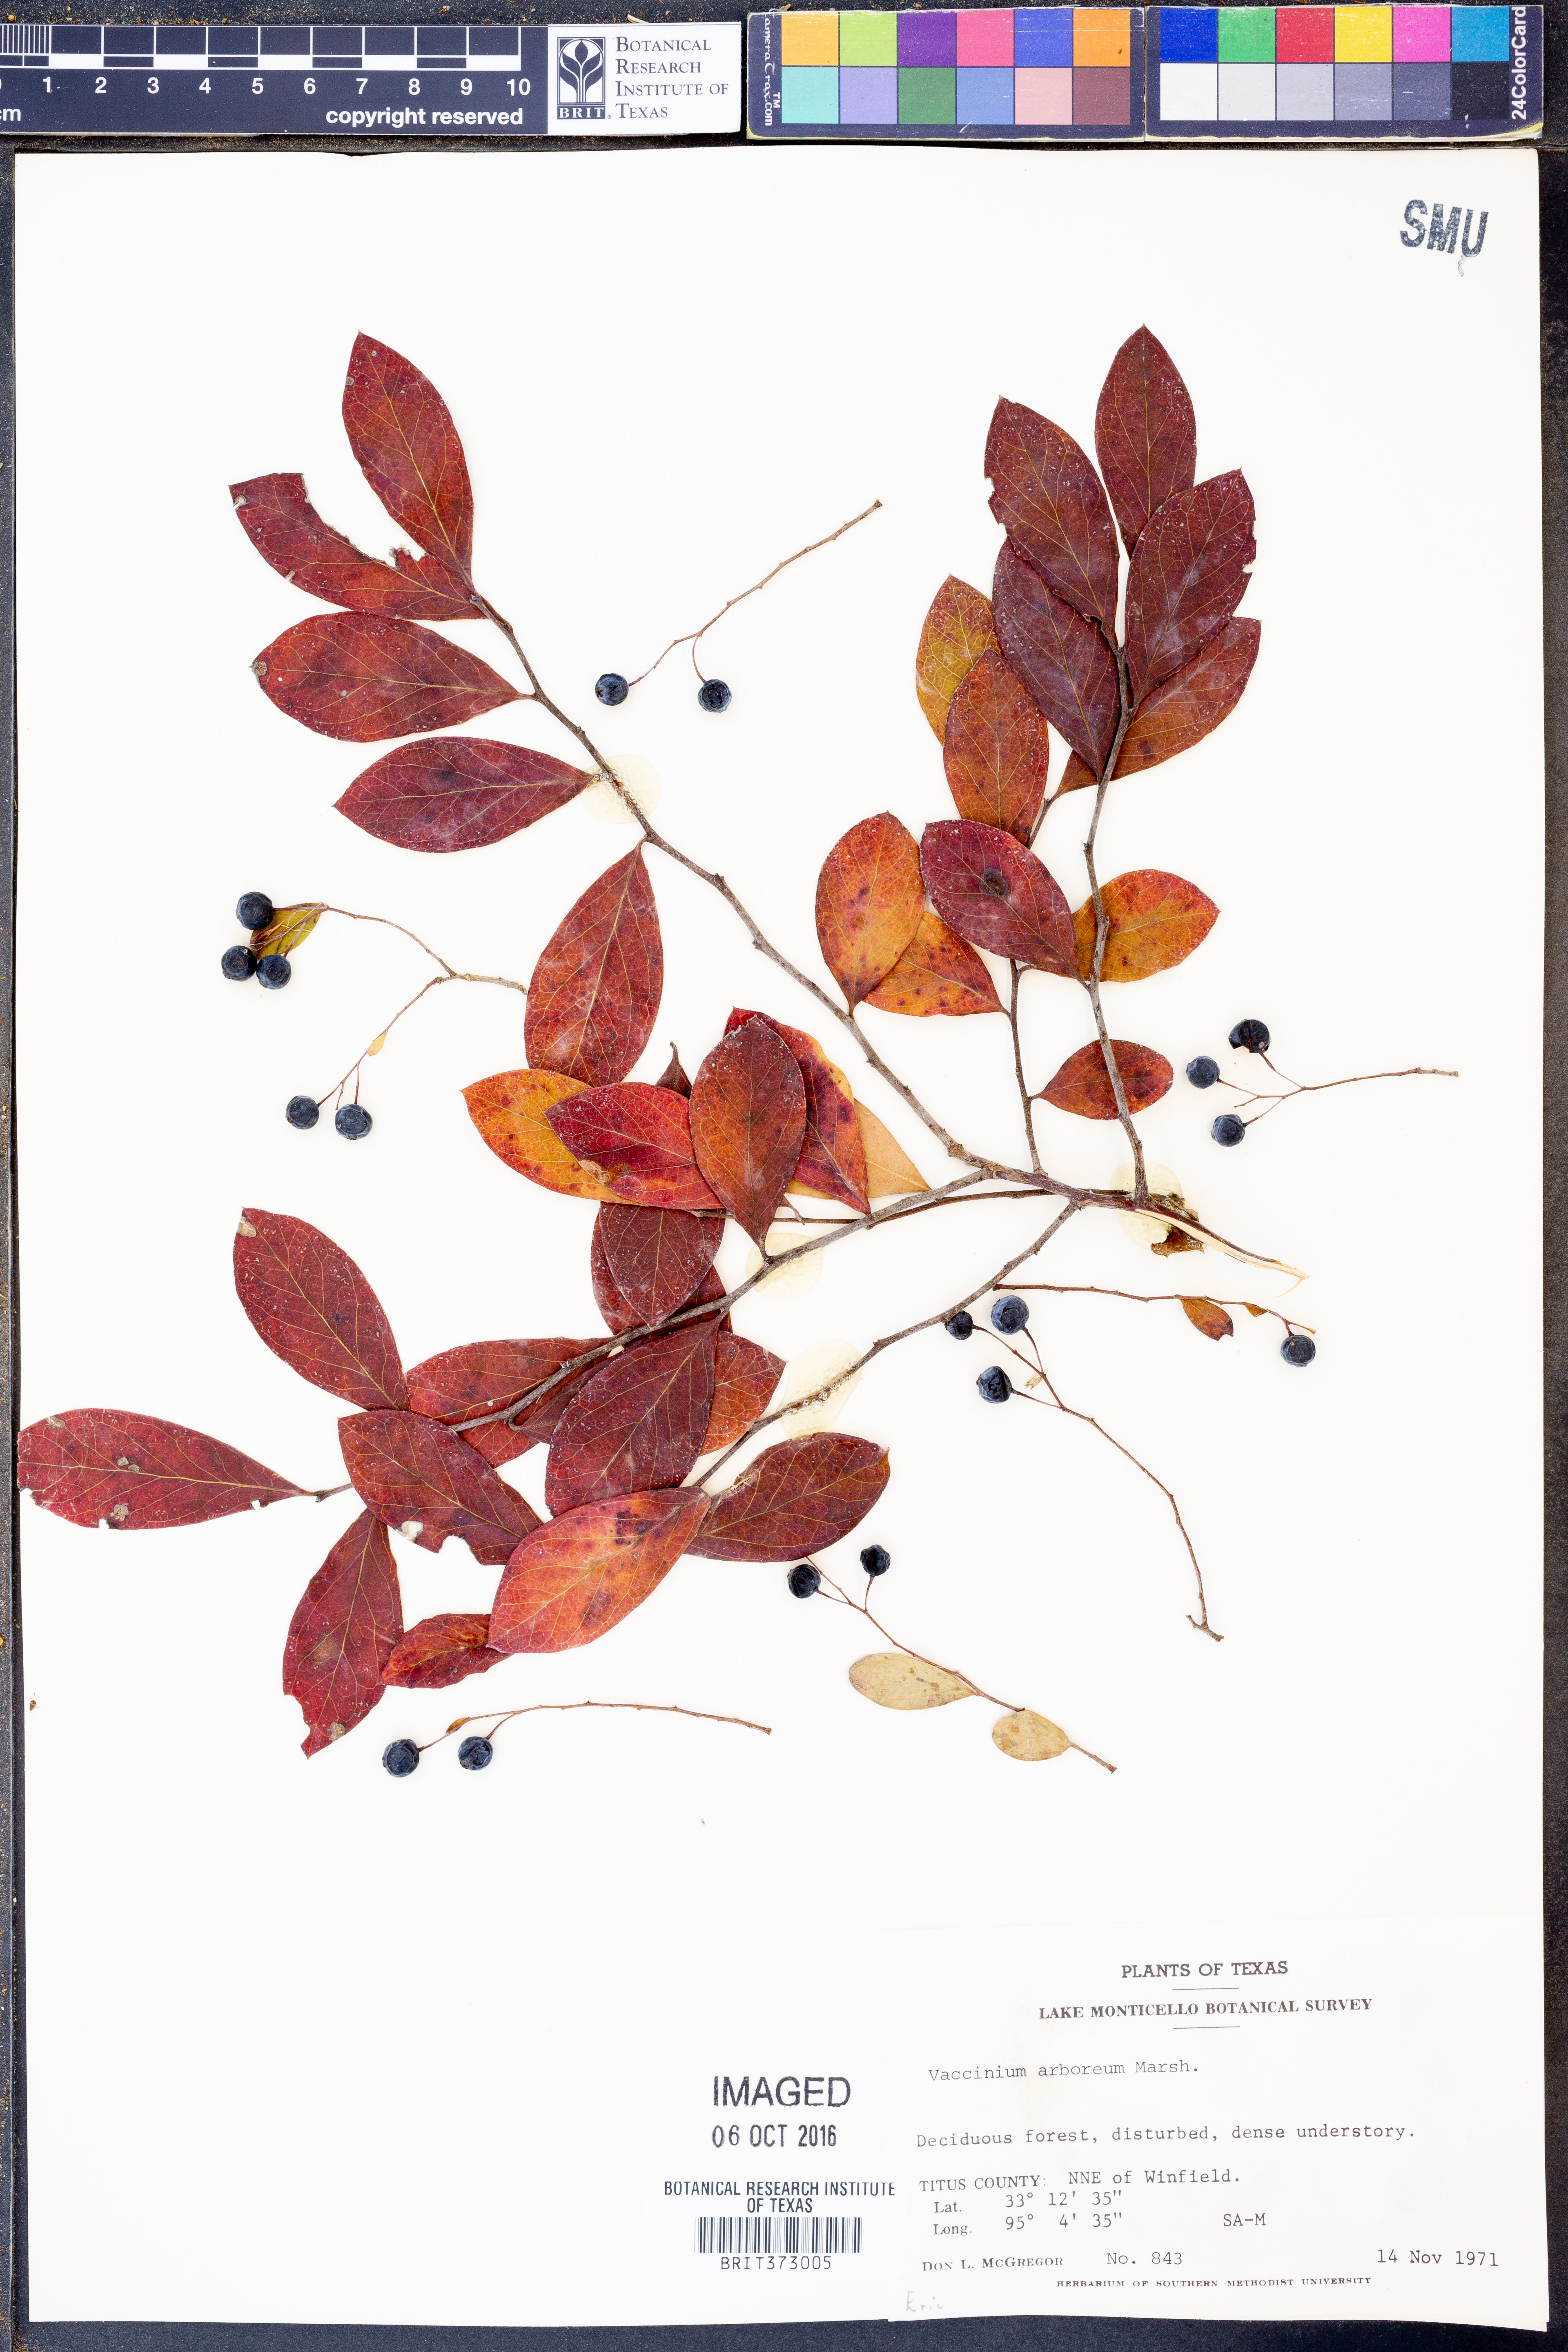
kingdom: Plantae
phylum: Tracheophyta
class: Magnoliopsida
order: Ericales
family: Ericaceae
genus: Vaccinium
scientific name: Vaccinium arboreum
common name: Farkleberry
